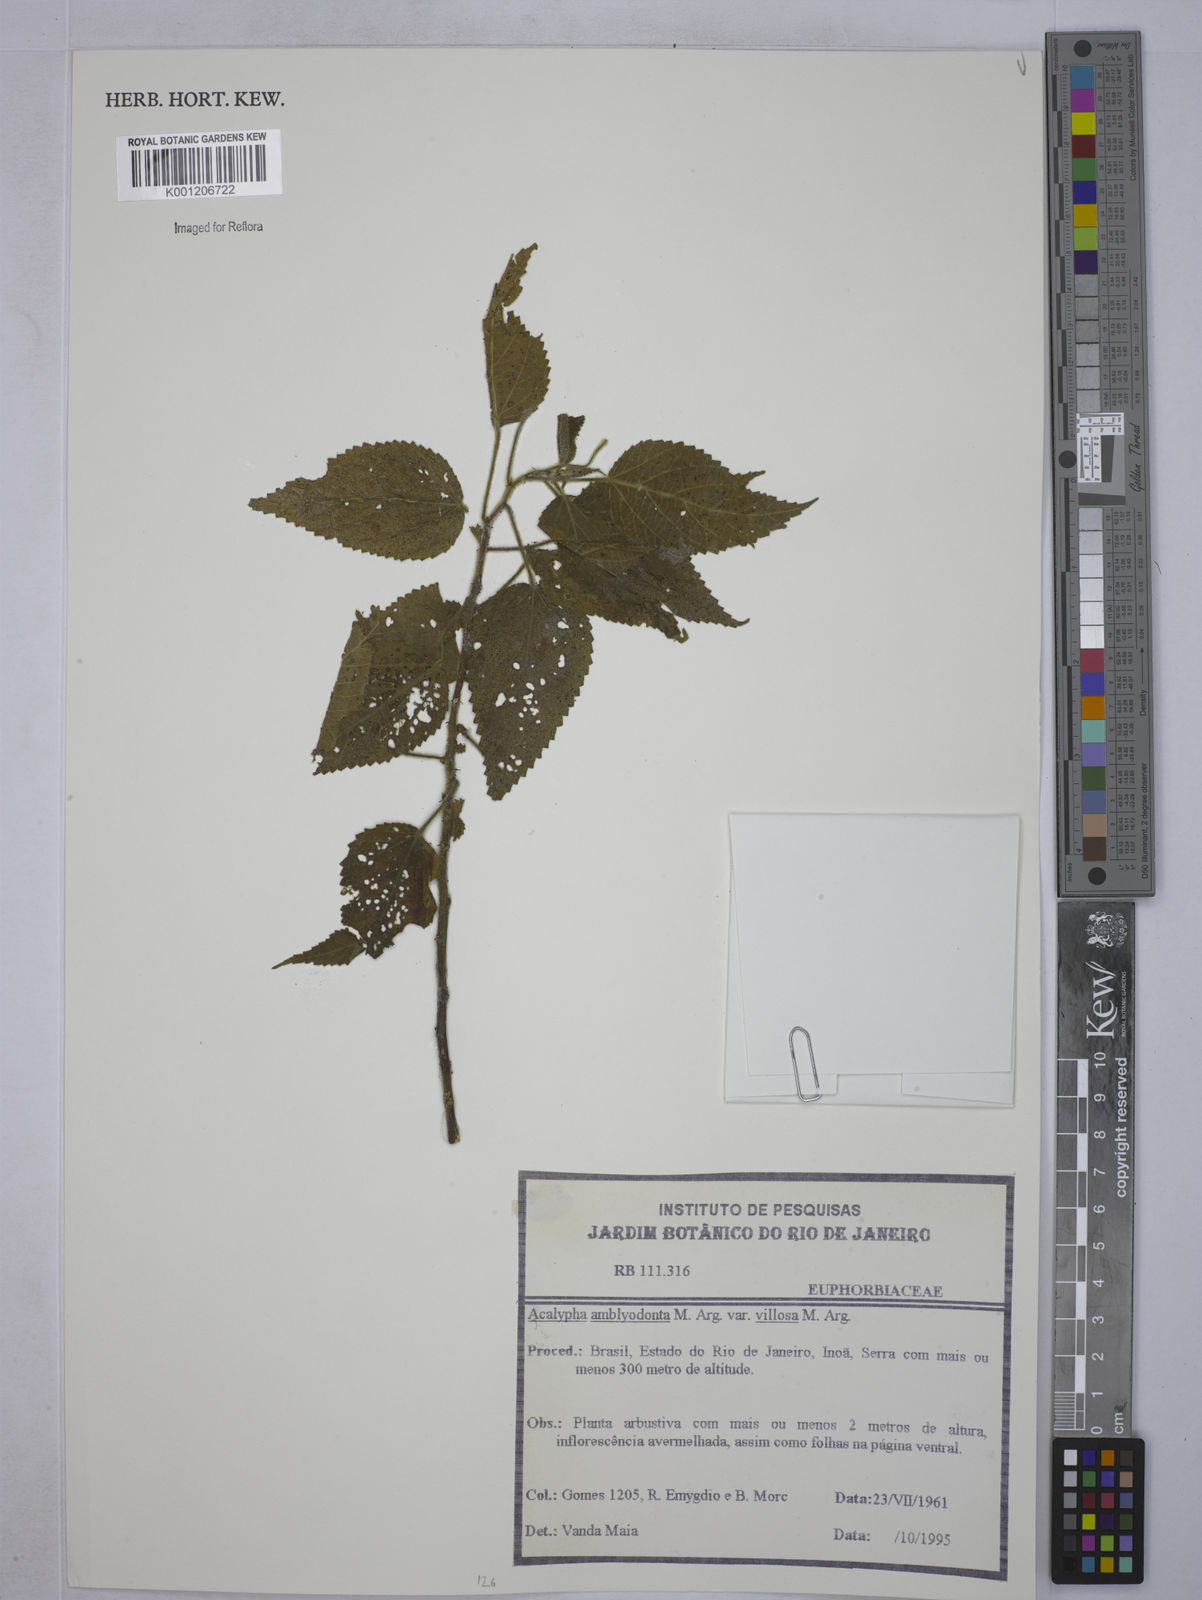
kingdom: Plantae
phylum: Tracheophyta
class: Magnoliopsida
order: Malpighiales
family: Euphorbiaceae
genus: Acalypha
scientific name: Acalypha
